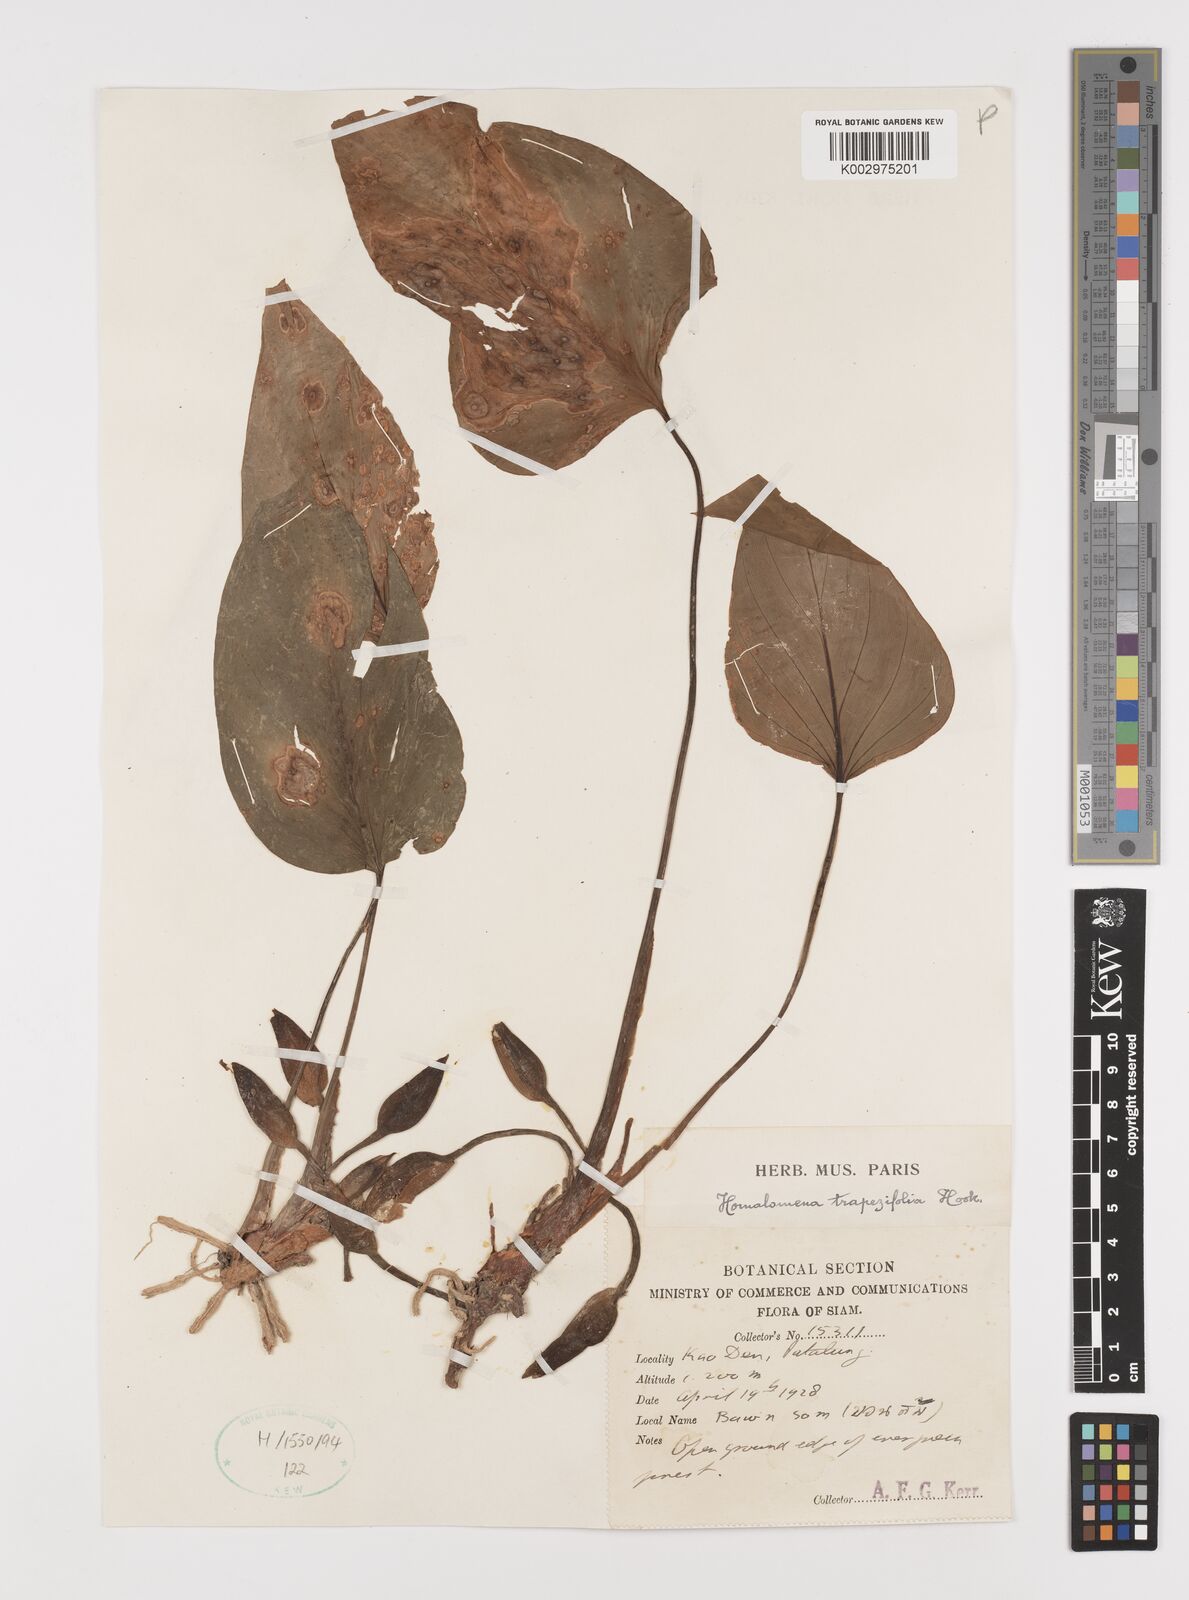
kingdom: Plantae
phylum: Tracheophyta
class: Liliopsida
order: Alismatales
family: Araceae
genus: Homalomena
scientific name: Homalomena griffithii
